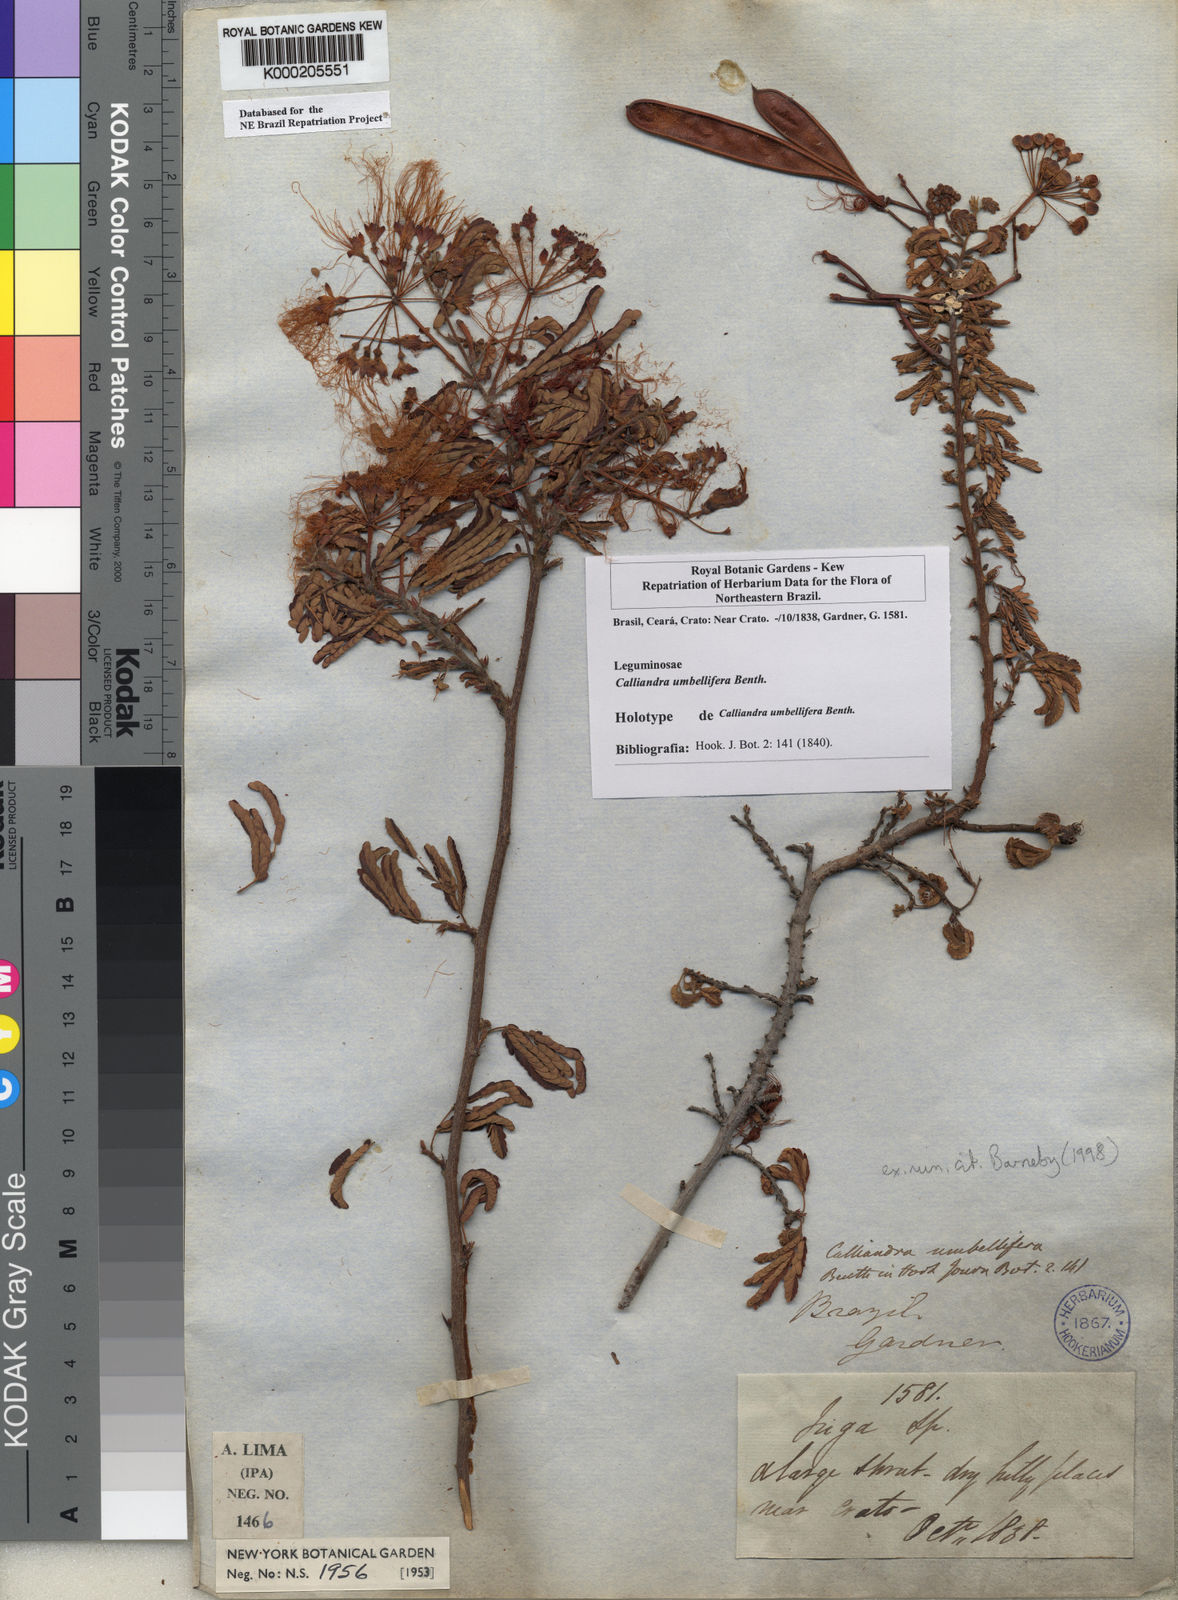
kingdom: Plantae
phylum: Tracheophyta
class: Magnoliopsida
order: Fabales
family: Fabaceae
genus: Calliandra
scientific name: Calliandra umbellifera
